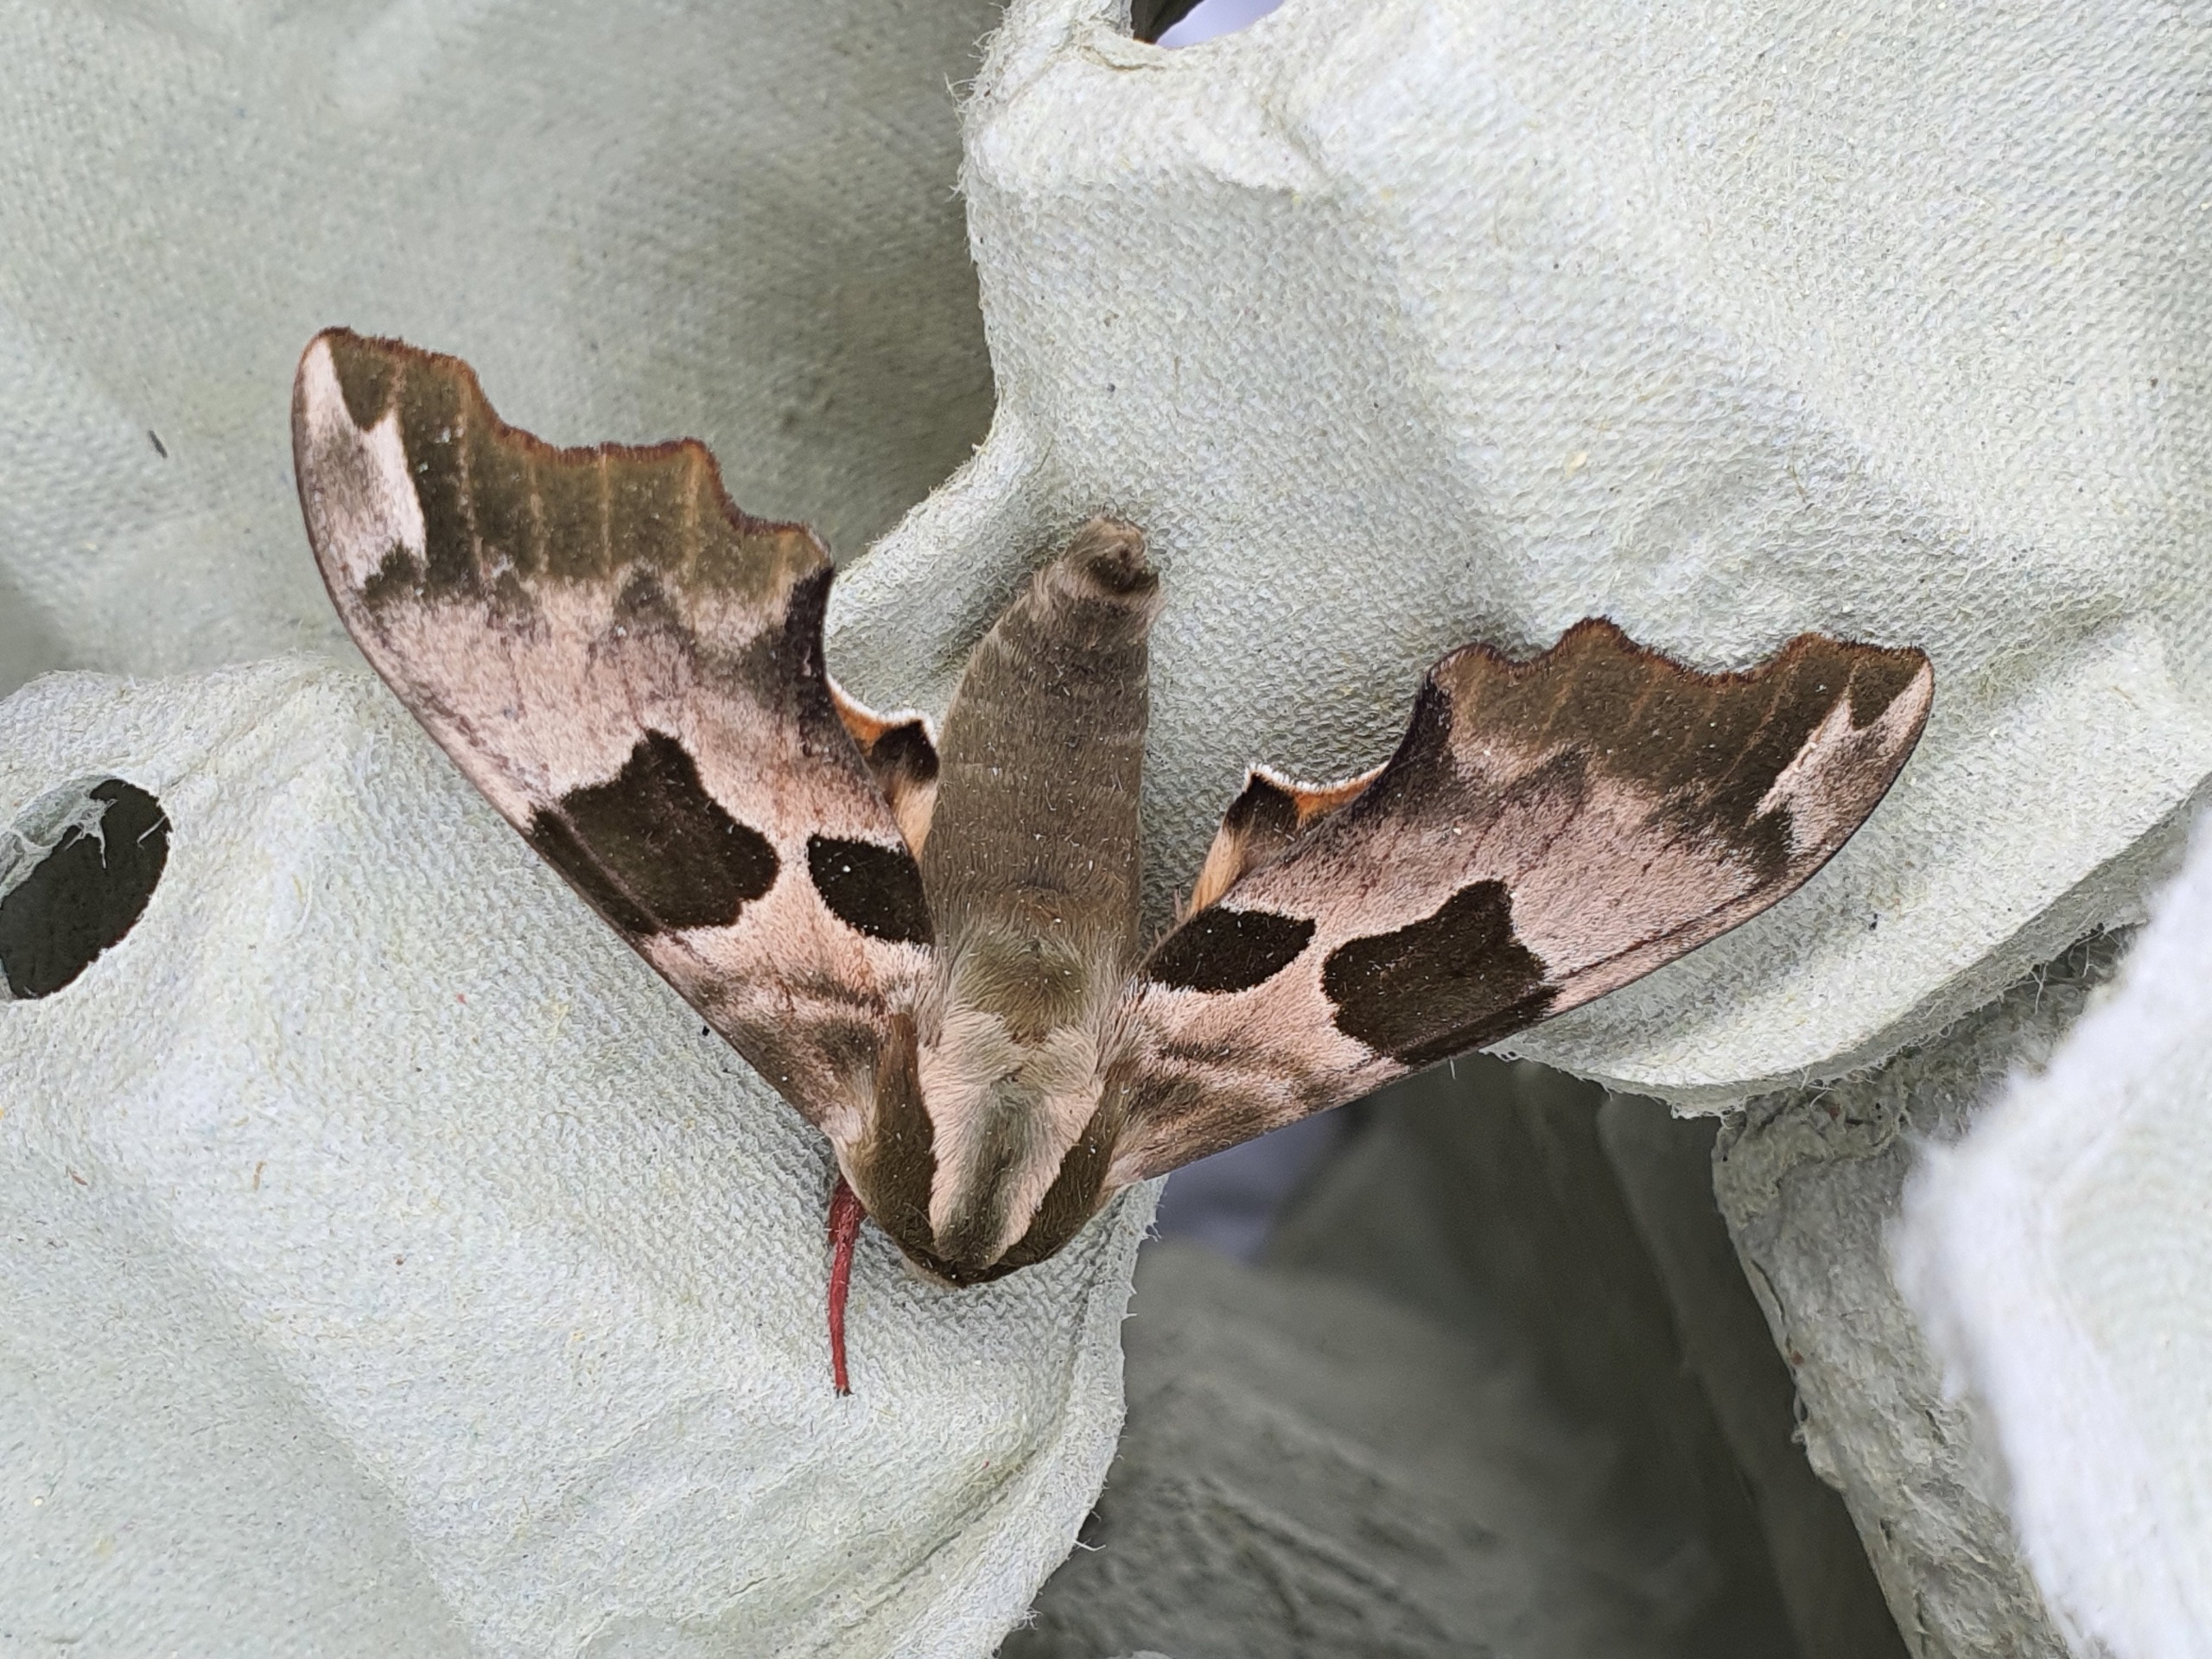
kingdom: Animalia
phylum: Arthropoda
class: Insecta
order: Lepidoptera
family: Sphingidae
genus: Mimas
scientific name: Mimas tiliae
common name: Lindesværmer
